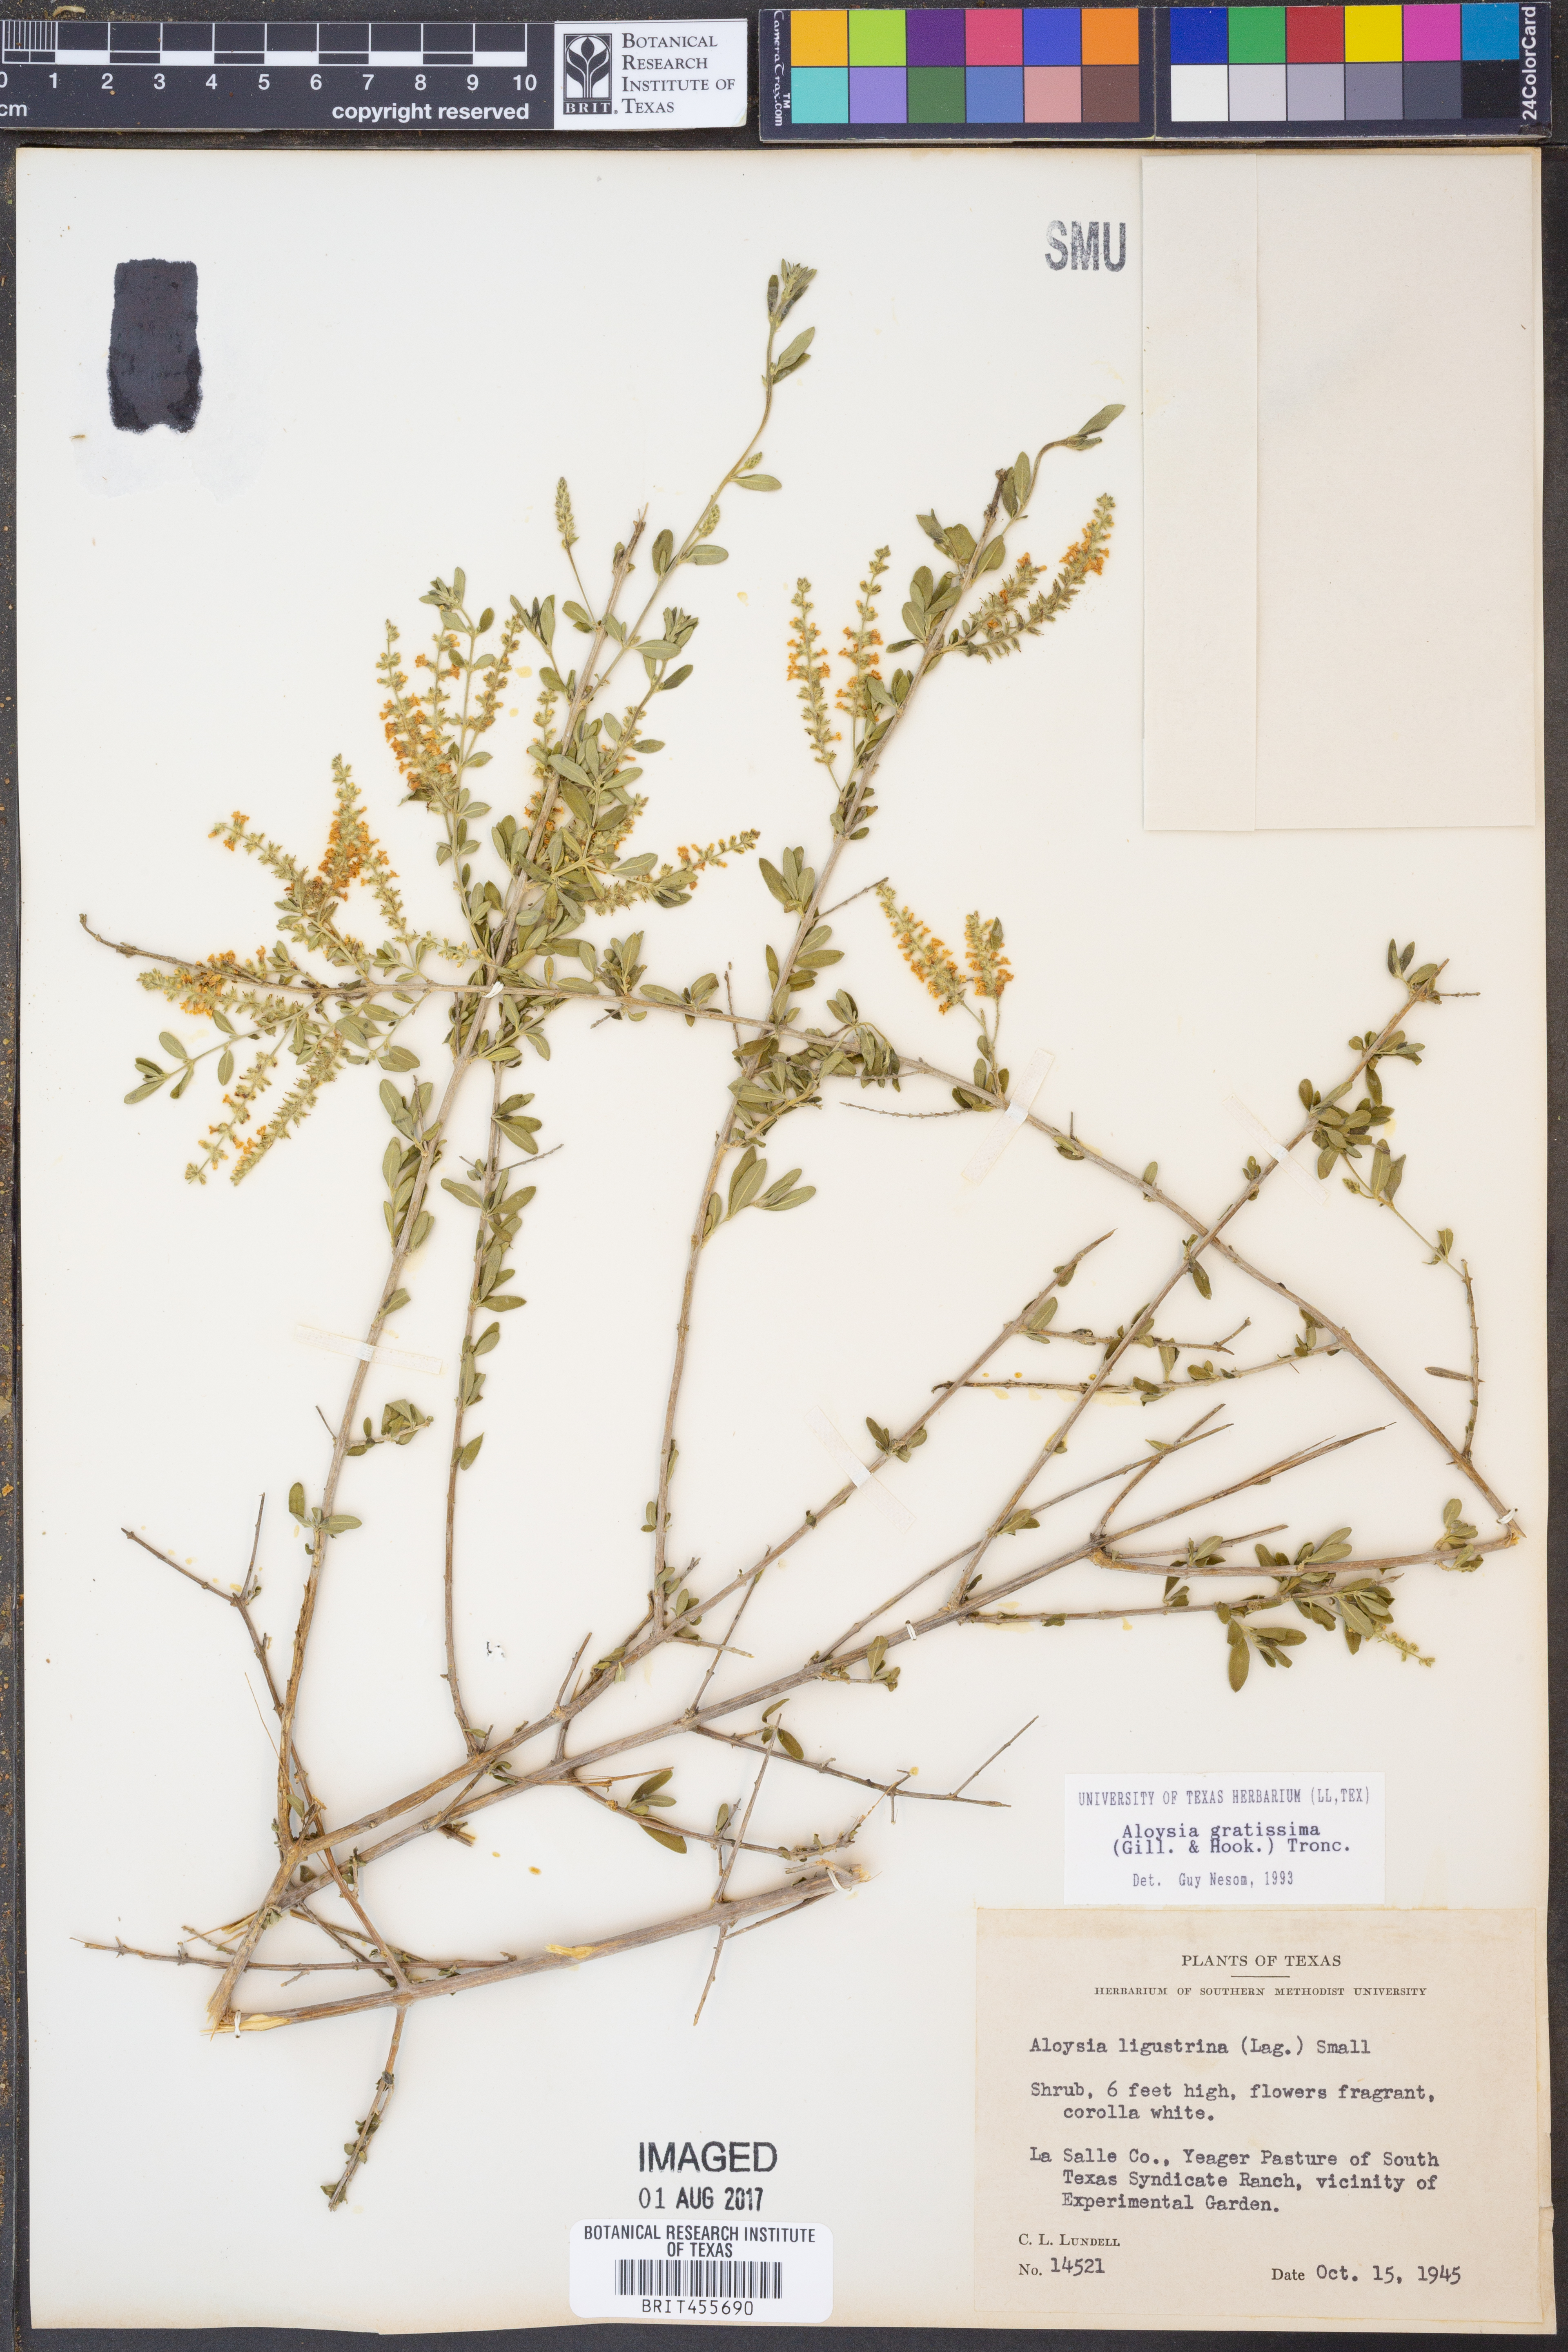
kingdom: Plantae
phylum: Tracheophyta
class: Magnoliopsida
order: Lamiales
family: Verbenaceae
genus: Aloysia
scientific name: Aloysia gratissima
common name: Common bee-brush
